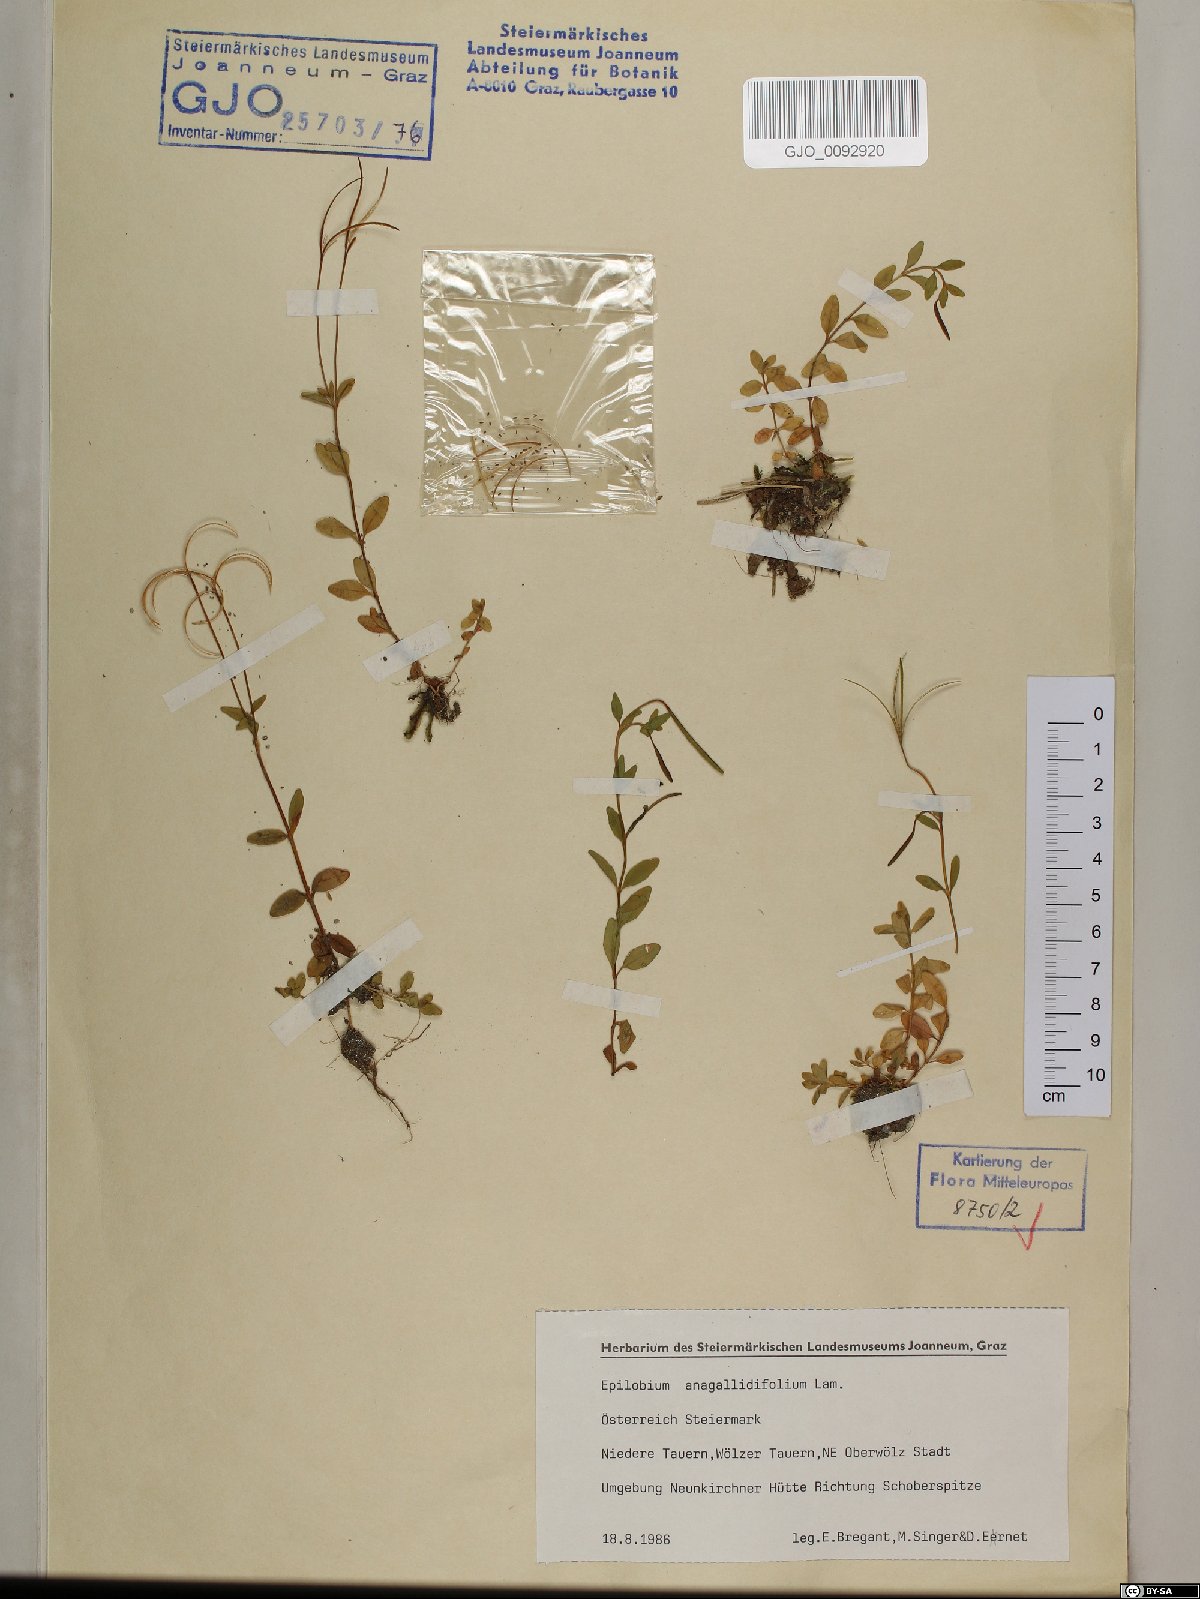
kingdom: Plantae
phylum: Tracheophyta
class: Magnoliopsida
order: Myrtales
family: Onagraceae
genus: Epilobium
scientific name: Epilobium anagallidifolium
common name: Alpine willowherb
